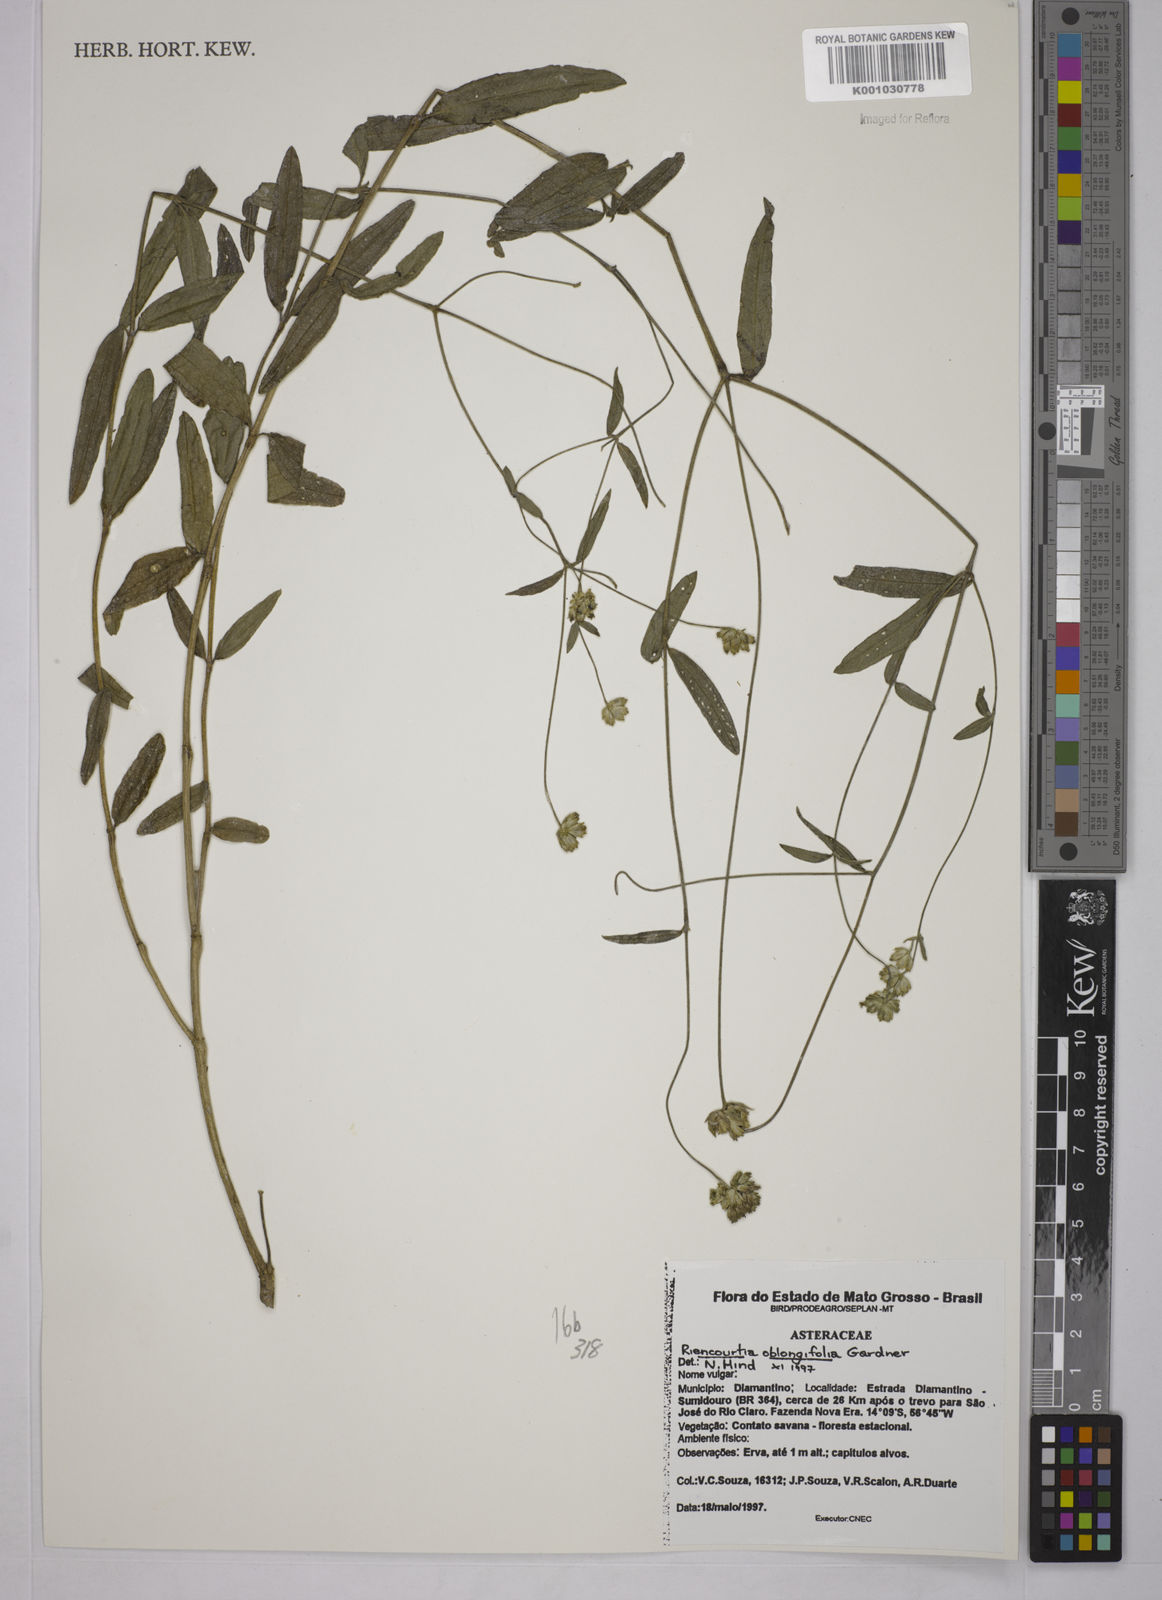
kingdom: Plantae
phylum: Tracheophyta
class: Magnoliopsida
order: Asterales
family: Asteraceae
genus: Riencourtia
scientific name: Riencourtia oblongifolia
